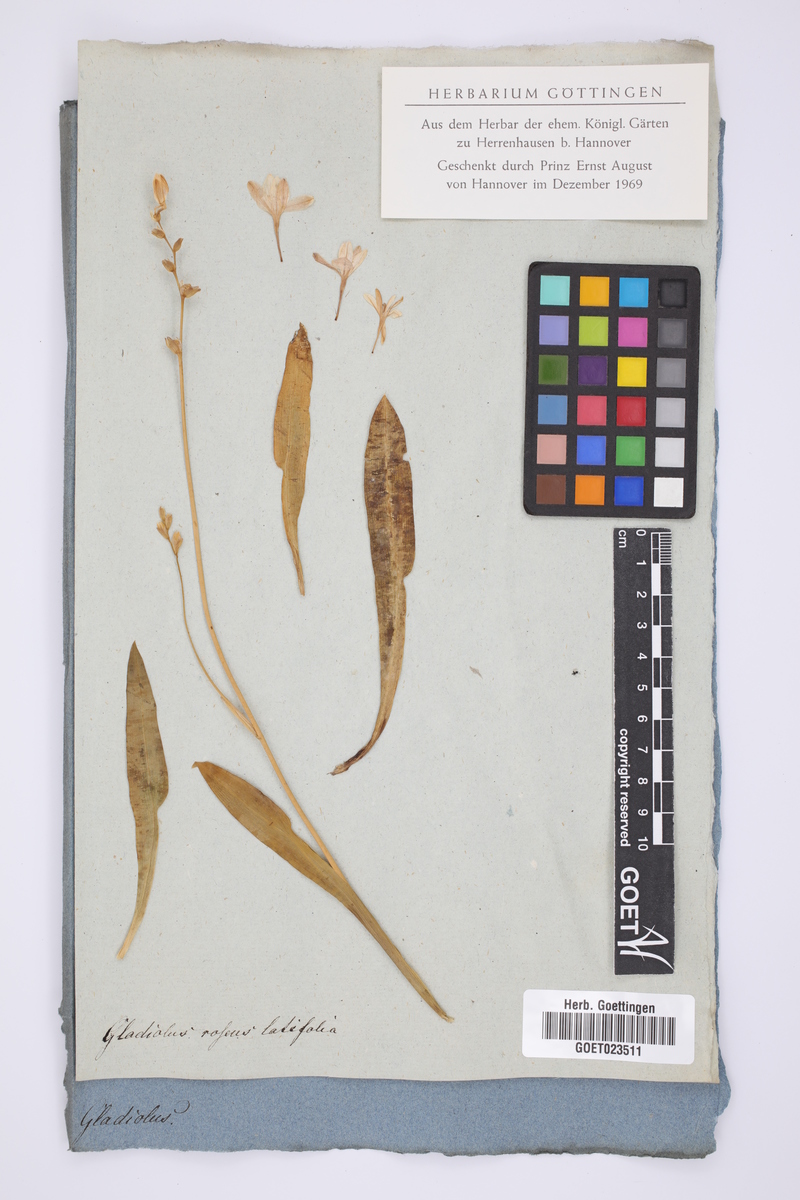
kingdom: Plantae
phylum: Tracheophyta
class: Liliopsida
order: Asparagales
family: Iridaceae
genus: Tritonia
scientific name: Tritonia flabellifolia
